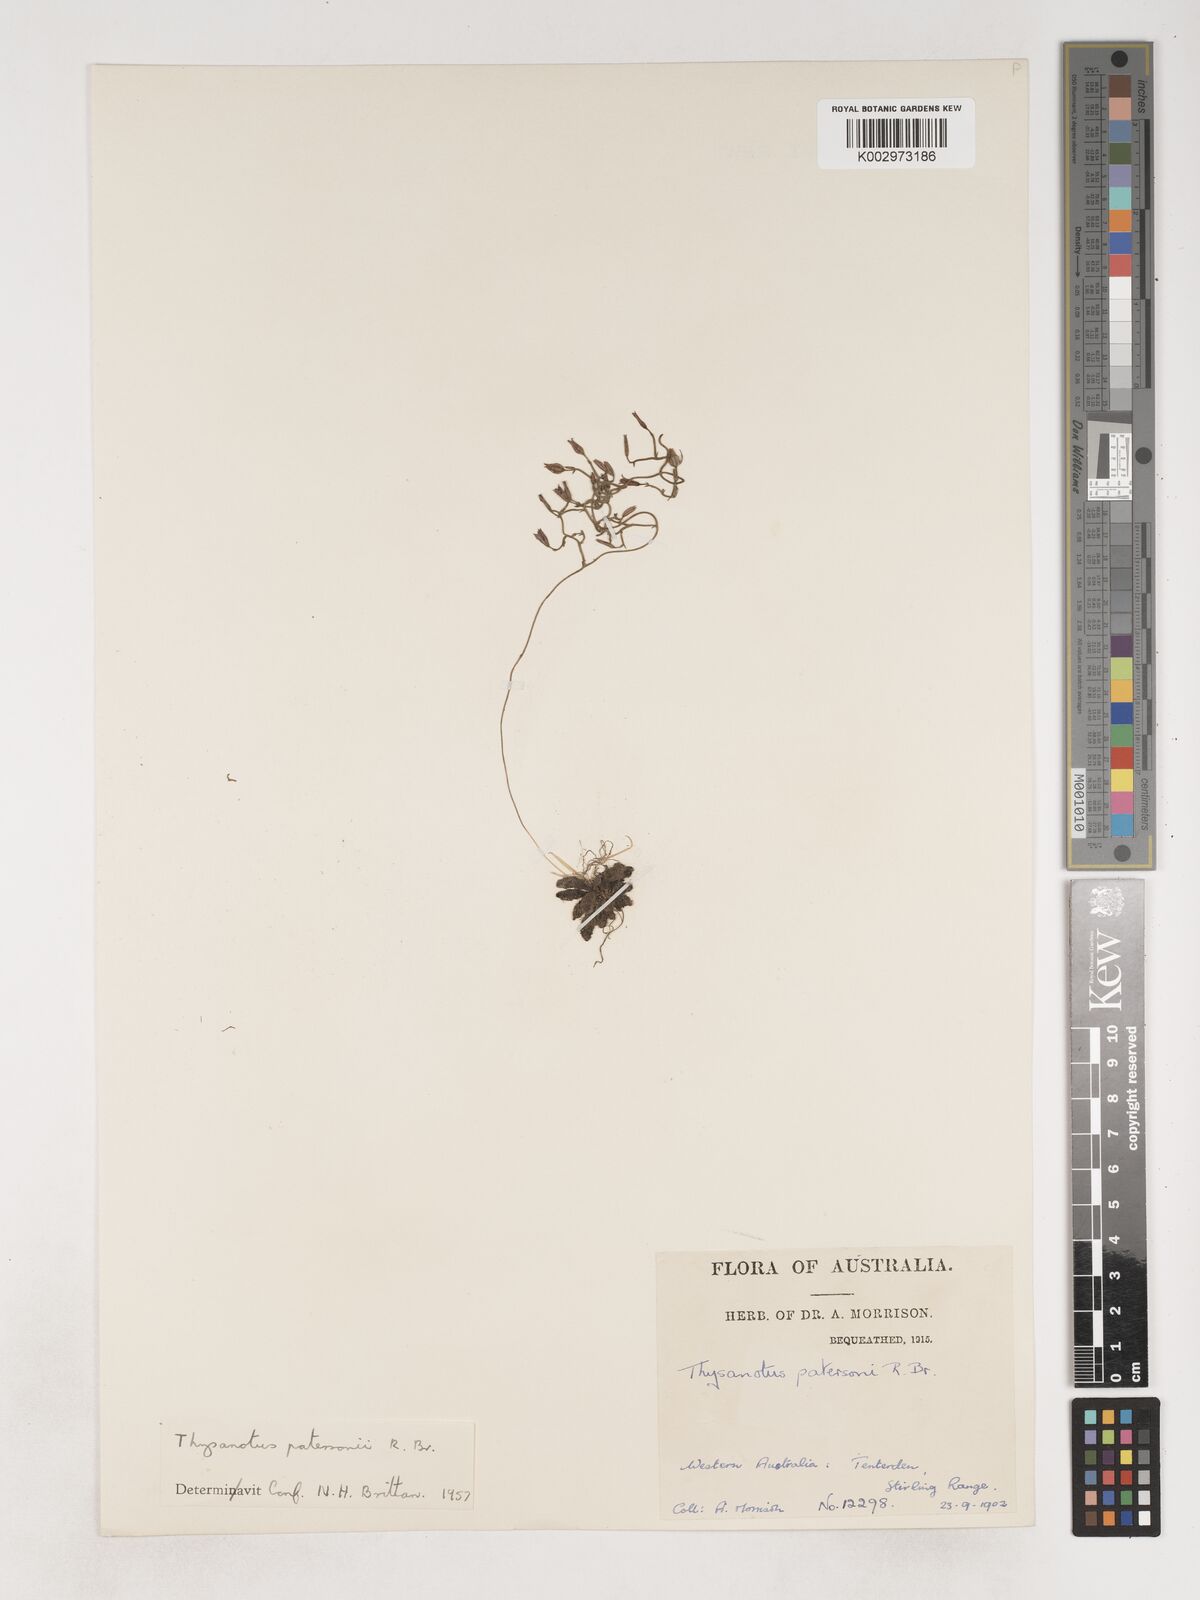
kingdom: Plantae
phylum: Tracheophyta
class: Liliopsida
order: Asparagales
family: Asparagaceae
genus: Thysanotus
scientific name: Thysanotus patersonii
